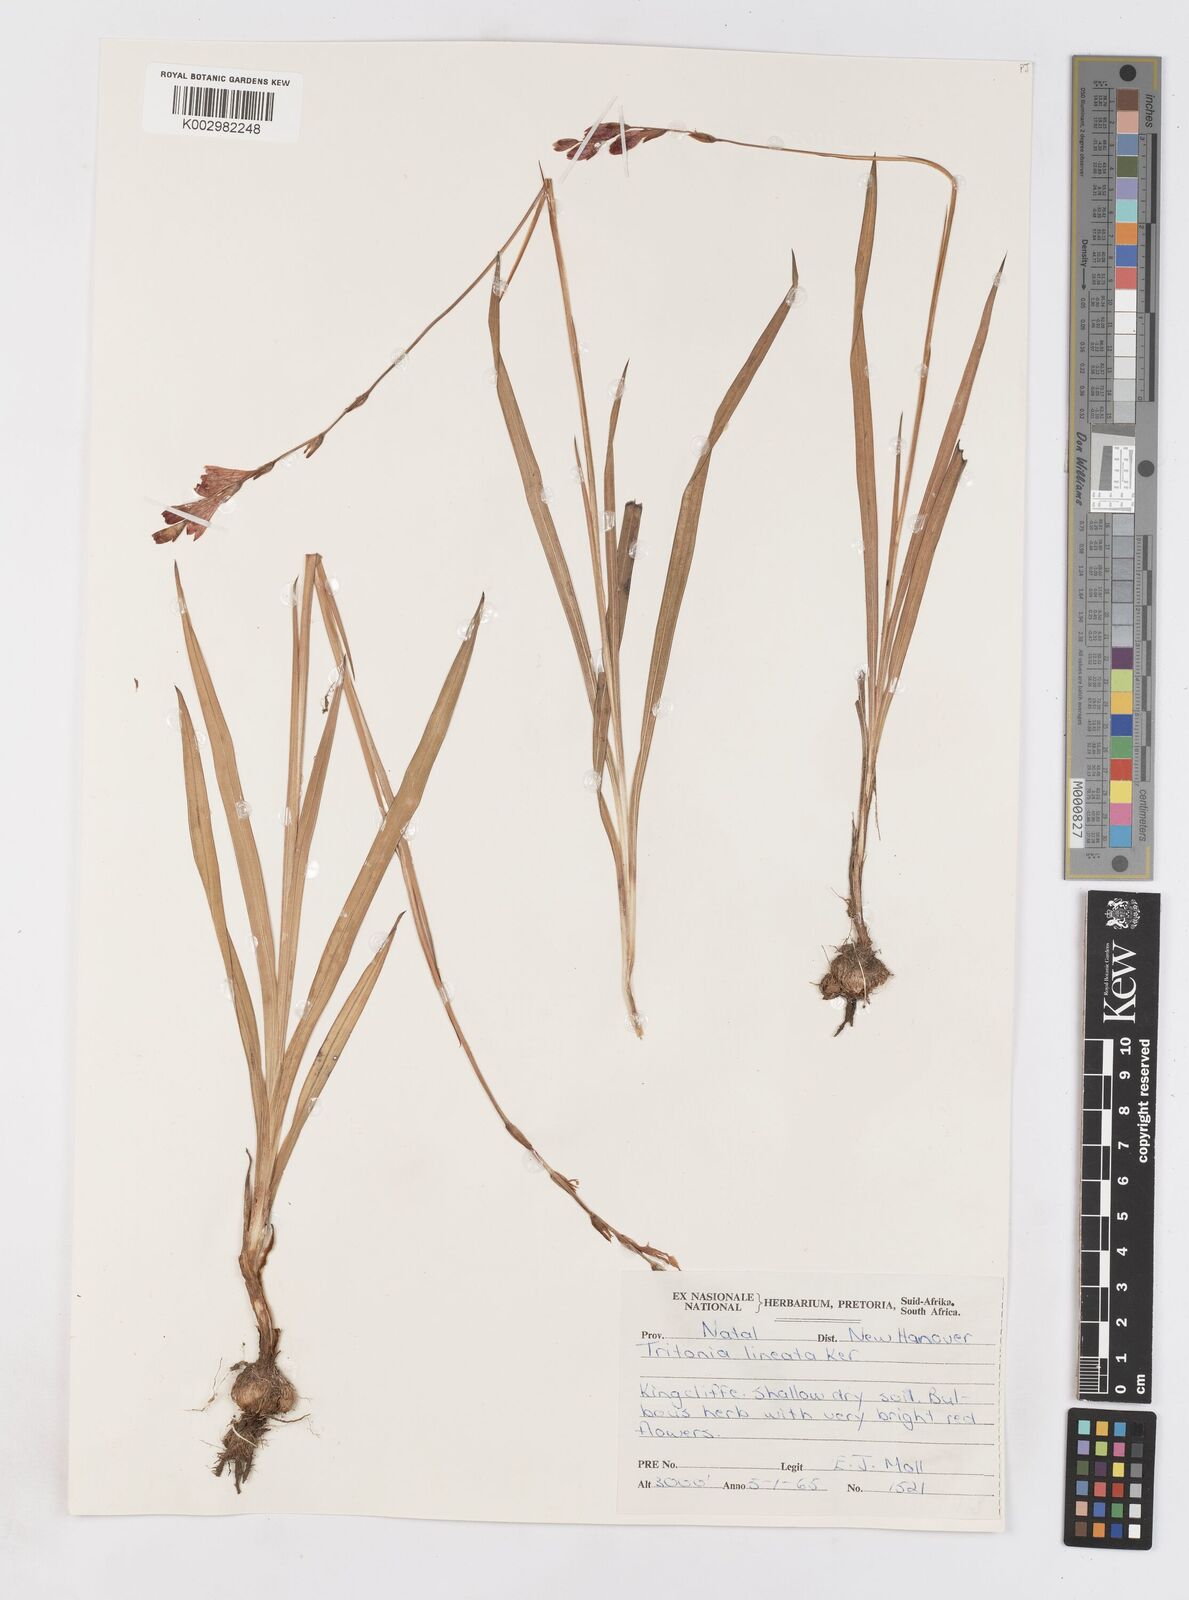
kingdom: Plantae
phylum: Tracheophyta
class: Liliopsida
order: Asparagales
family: Iridaceae
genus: Tritonia
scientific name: Tritonia gladiolaris
